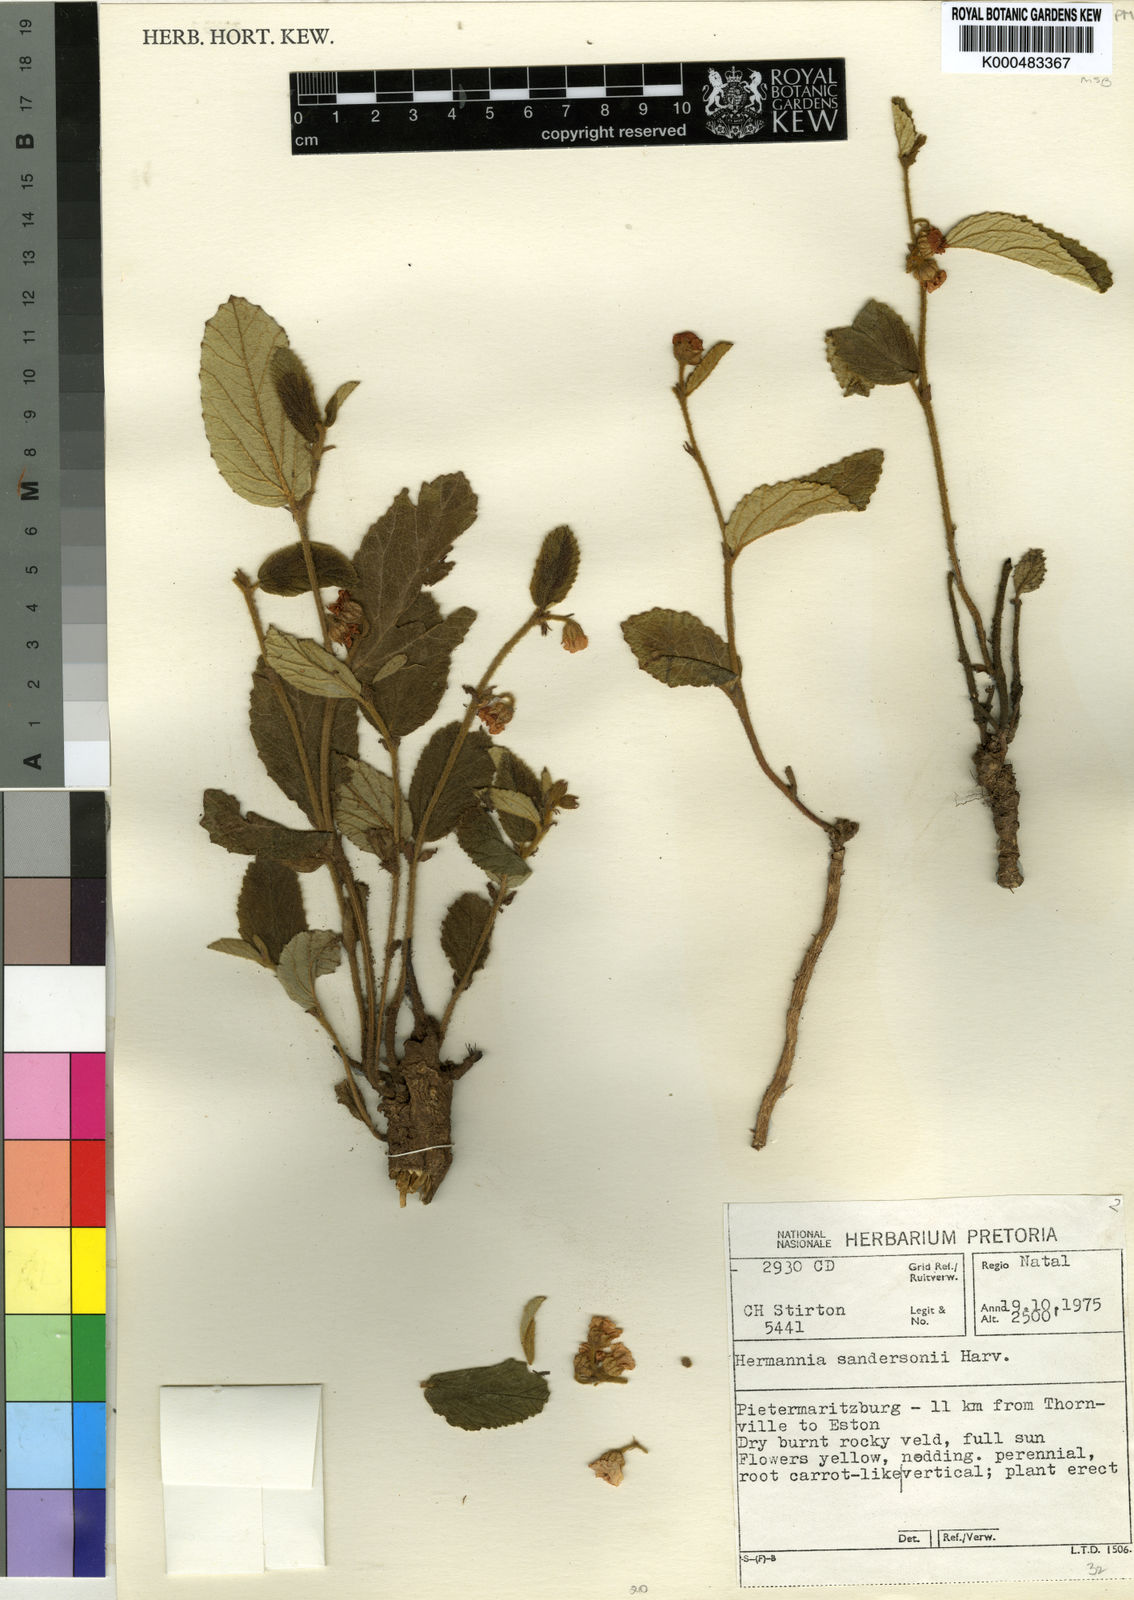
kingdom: Plantae
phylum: Tracheophyta
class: Magnoliopsida
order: Malvales
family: Malvaceae
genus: Hermannia
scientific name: Hermannia sandersonii
